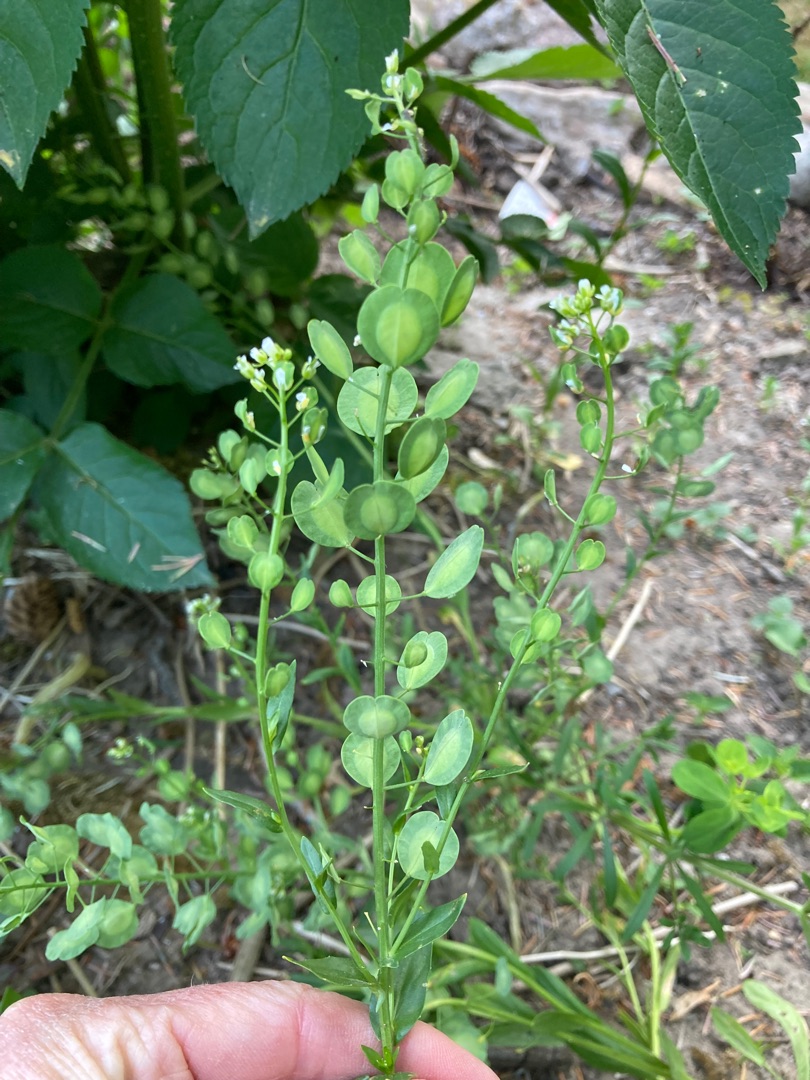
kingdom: Plantae
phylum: Tracheophyta
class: Magnoliopsida
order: Brassicales
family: Brassicaceae
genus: Thlaspi
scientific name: Thlaspi arvense
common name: Almindelig pengeurt
